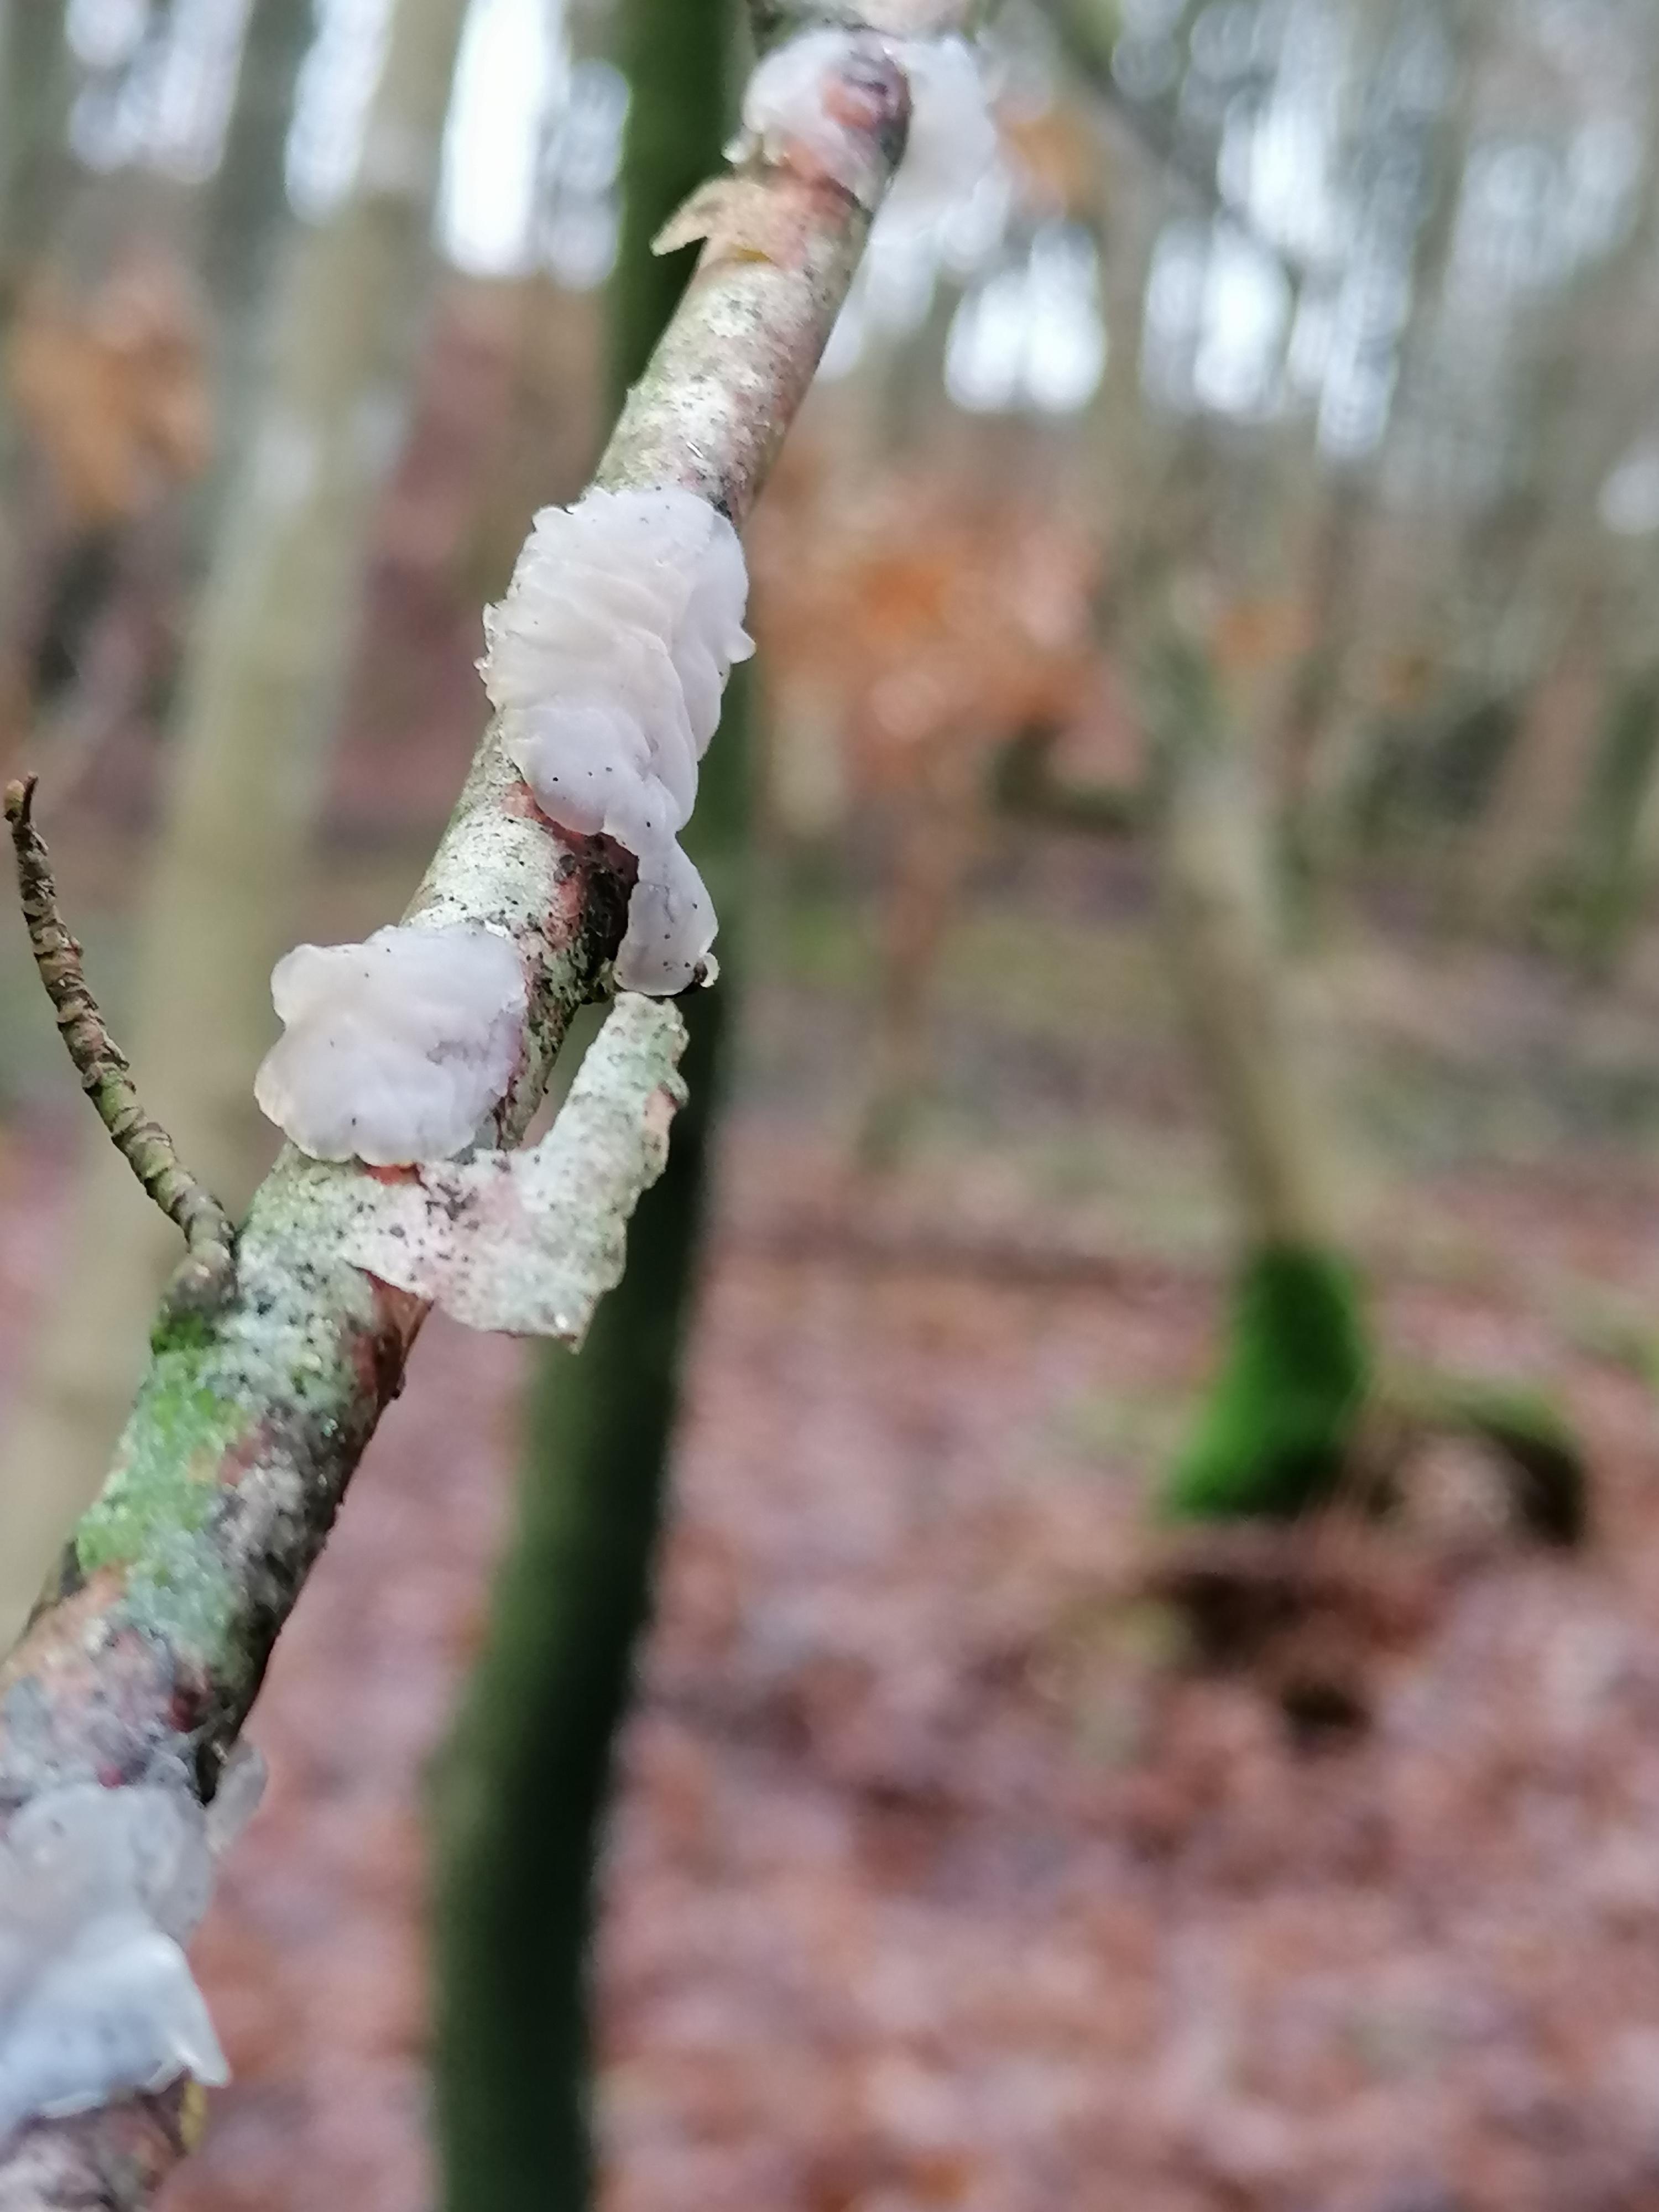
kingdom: Fungi
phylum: Basidiomycota
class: Agaricomycetes
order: Auriculariales
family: Auriculariaceae
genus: Exidia
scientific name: Exidia thuretiana
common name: hvidlig bævretop
